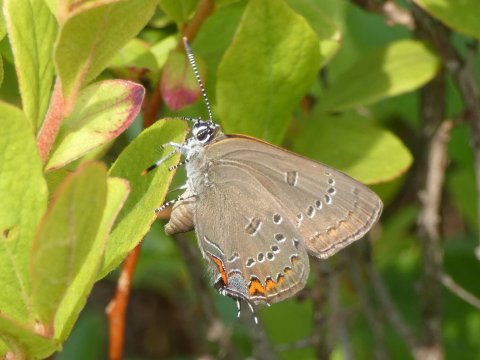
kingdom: Animalia
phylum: Arthropoda
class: Insecta
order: Lepidoptera
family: Lycaenidae
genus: Satyrium
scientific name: Satyrium edwardsii
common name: Edwards' Hairstreak
